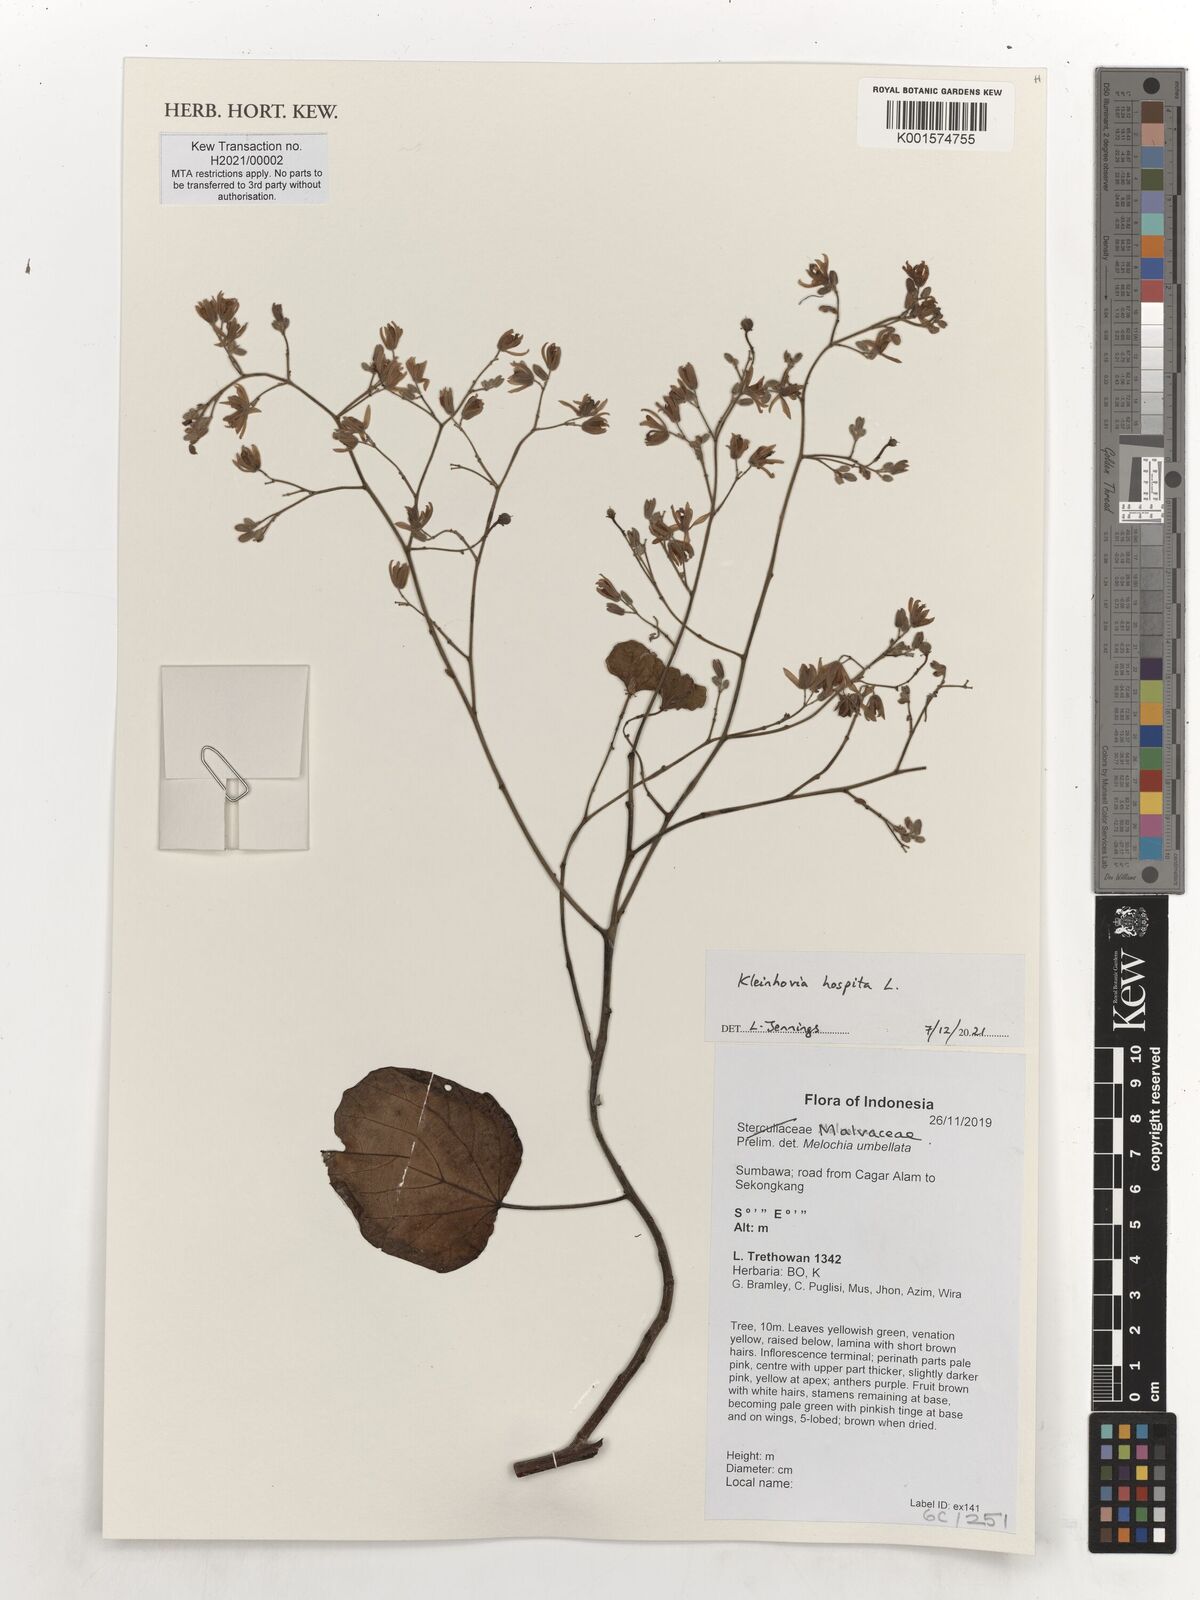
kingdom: Plantae
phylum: Tracheophyta
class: Magnoliopsida
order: Malvales
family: Malvaceae
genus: Kleinhovia
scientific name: Kleinhovia hospita
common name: Guest-tree
